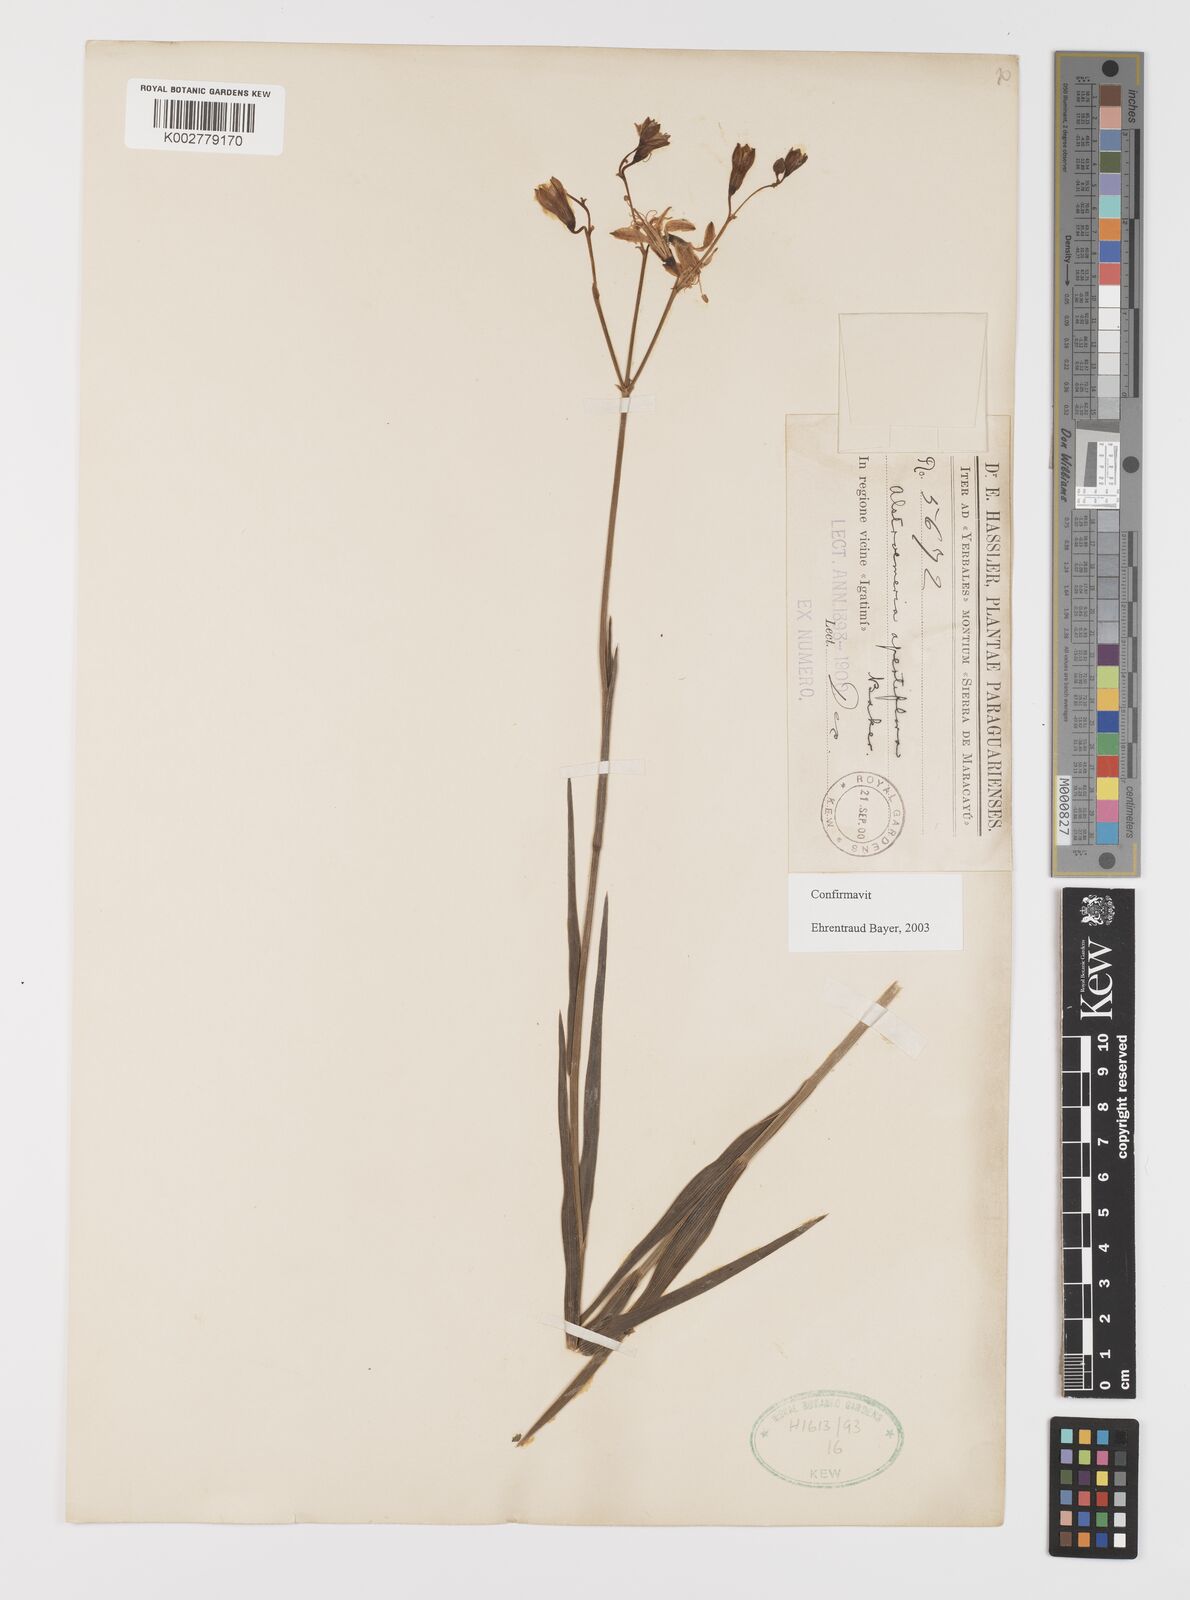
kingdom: Plantae
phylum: Tracheophyta
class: Liliopsida
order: Liliales
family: Alstroemeriaceae
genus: Alstroemeria
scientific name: Alstroemeria apertiflora
